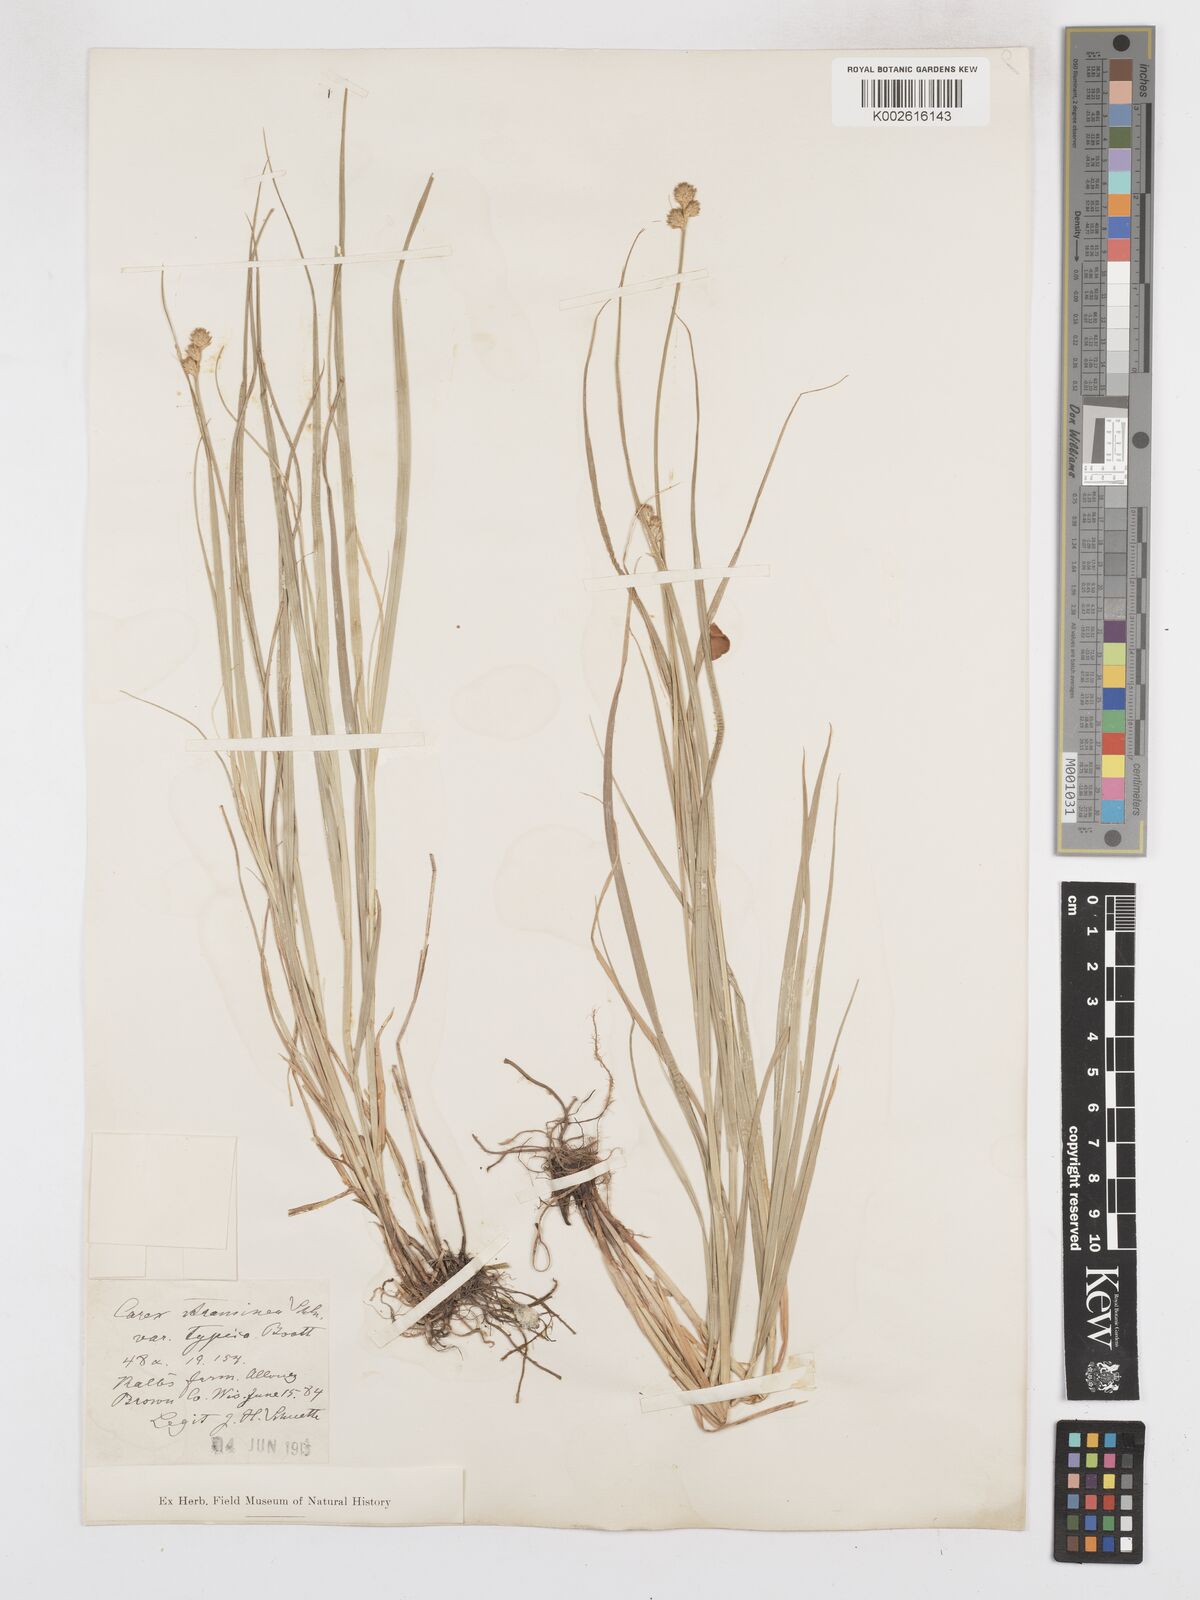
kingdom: Plantae
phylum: Tracheophyta
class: Liliopsida
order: Poales
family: Cyperaceae
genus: Carex
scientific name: Carex brevior
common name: Brevior sedge
